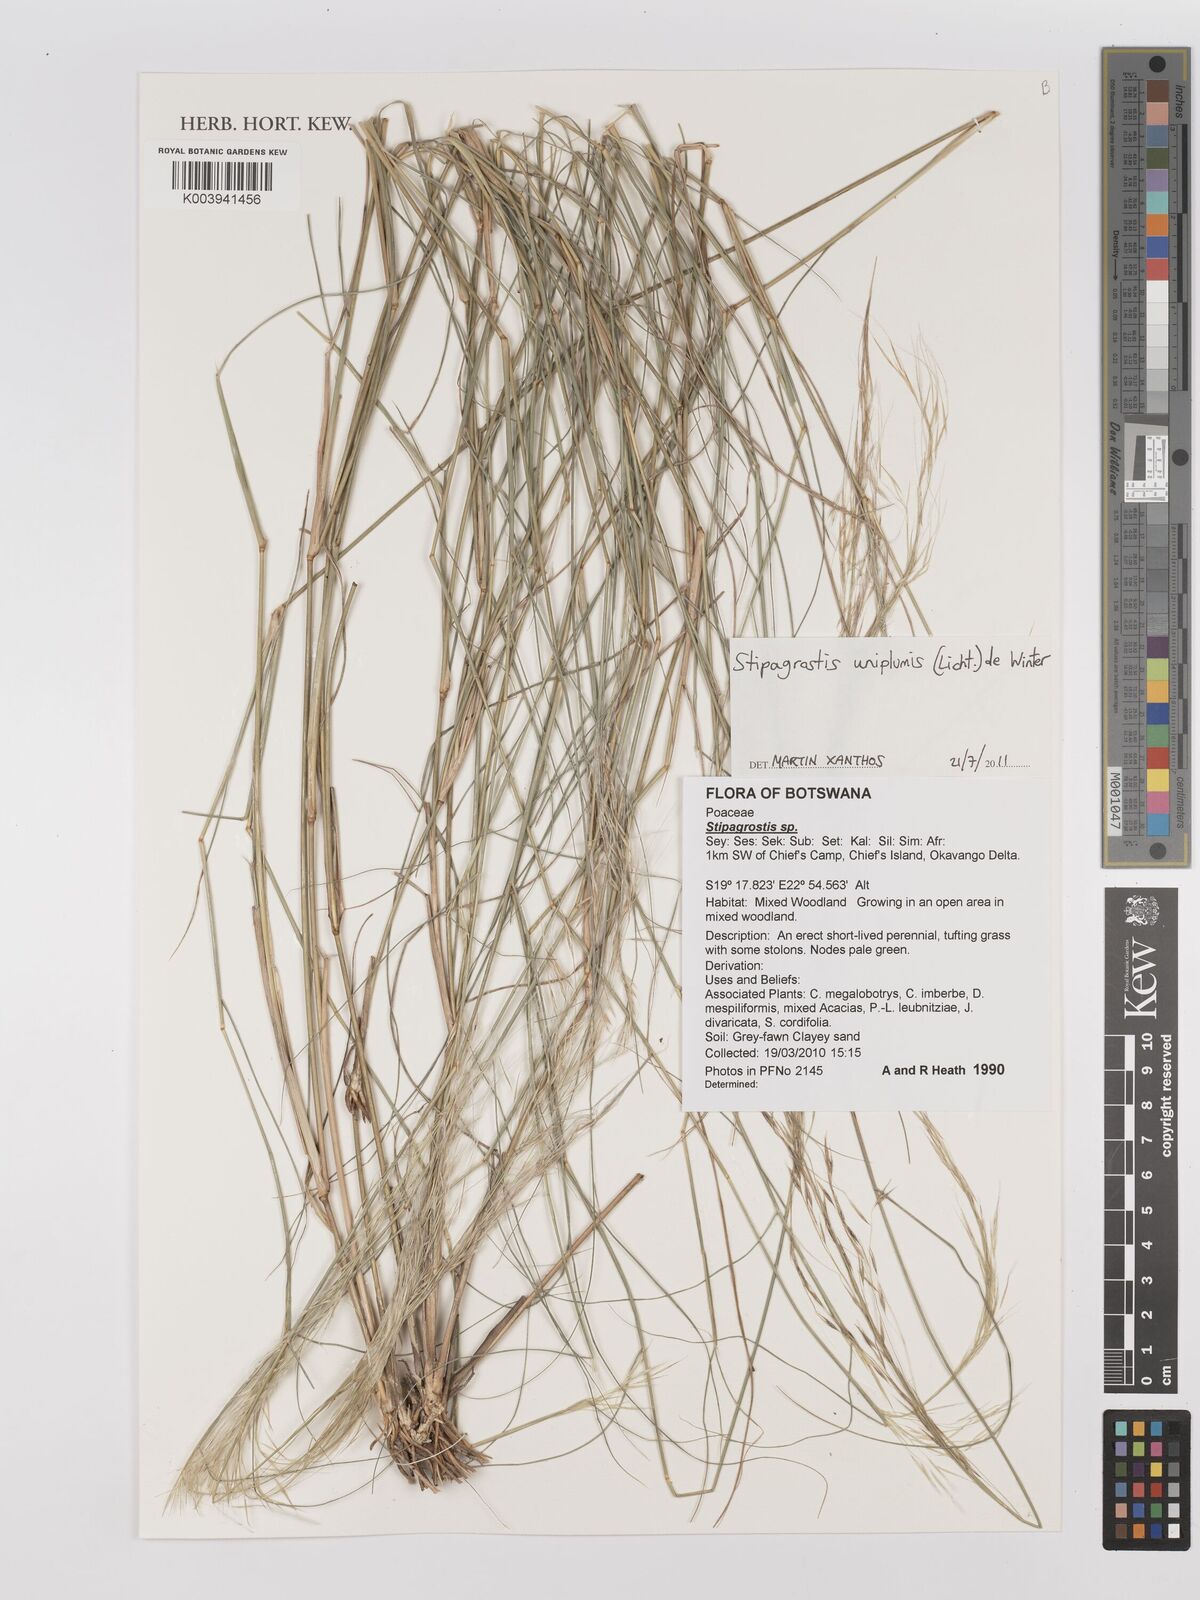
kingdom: Plantae
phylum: Tracheophyta
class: Liliopsida
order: Poales
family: Poaceae
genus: Stipagrostis
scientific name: Stipagrostis uniplumis
